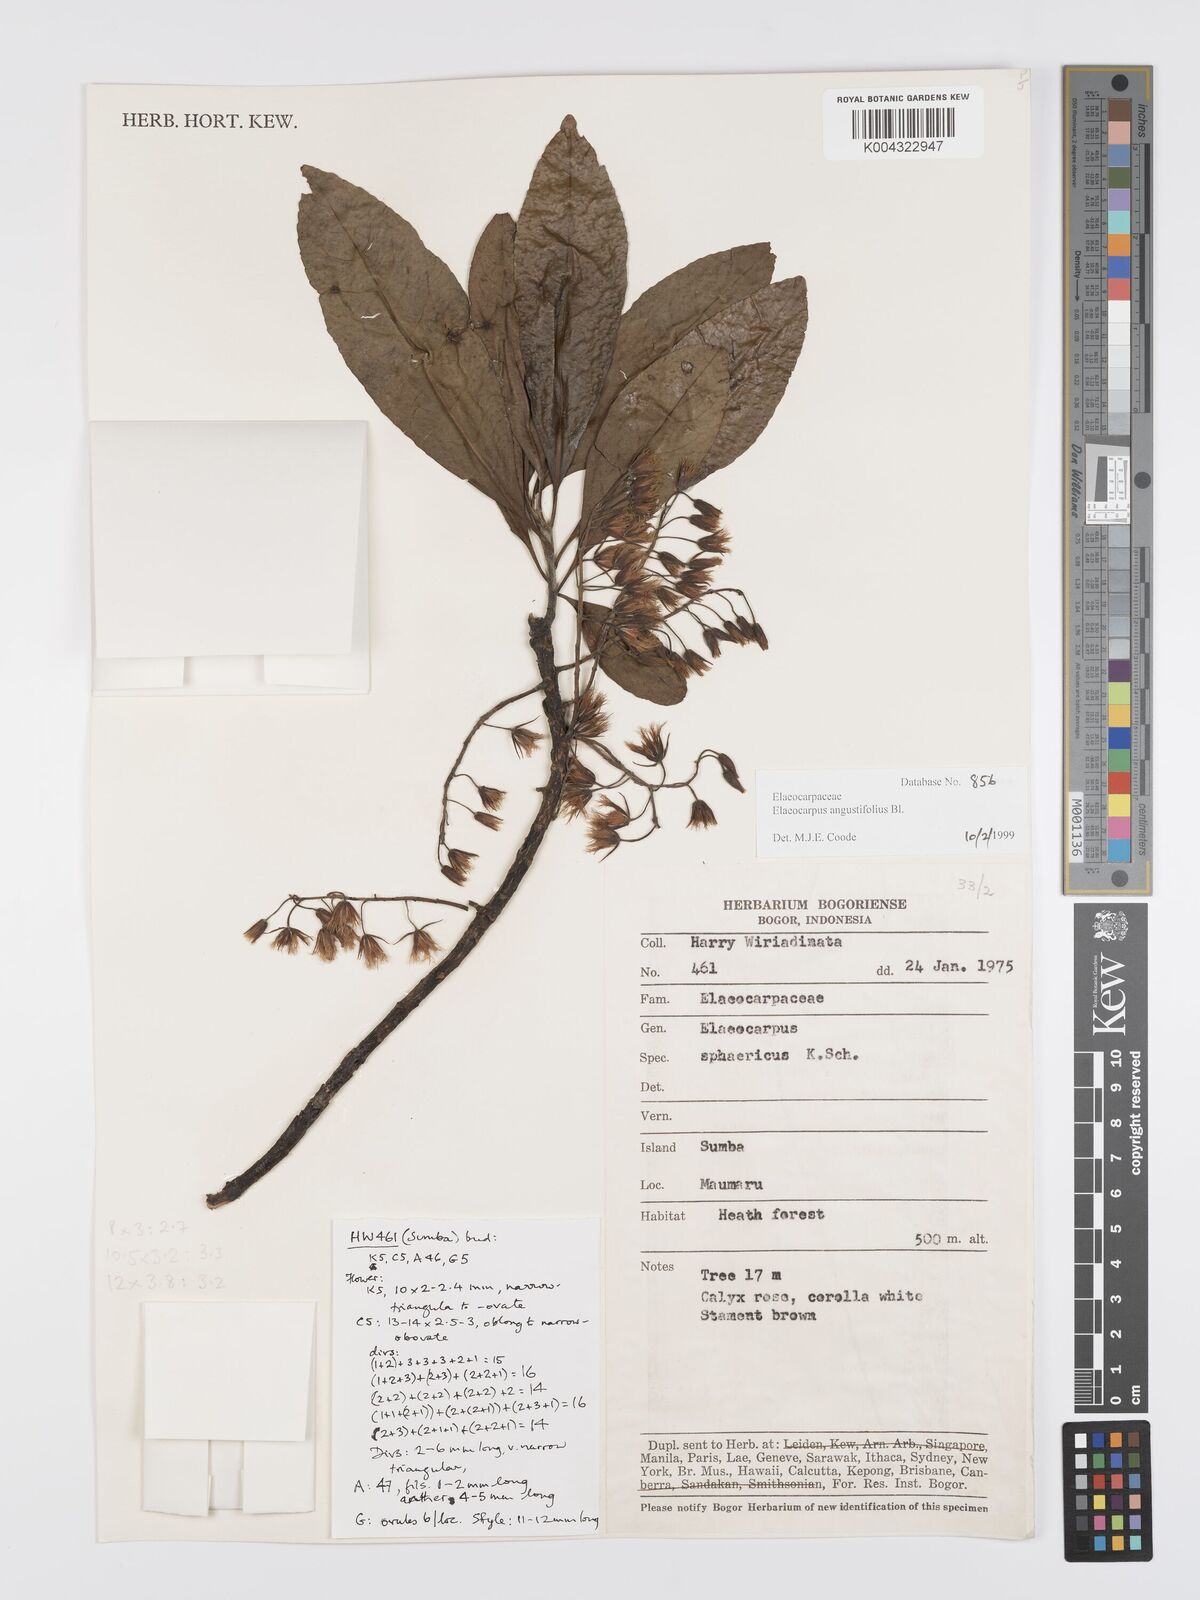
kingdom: Plantae
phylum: Tracheophyta
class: Magnoliopsida
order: Oxalidales
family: Elaeocarpaceae
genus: Elaeocarpus
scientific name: Elaeocarpus
